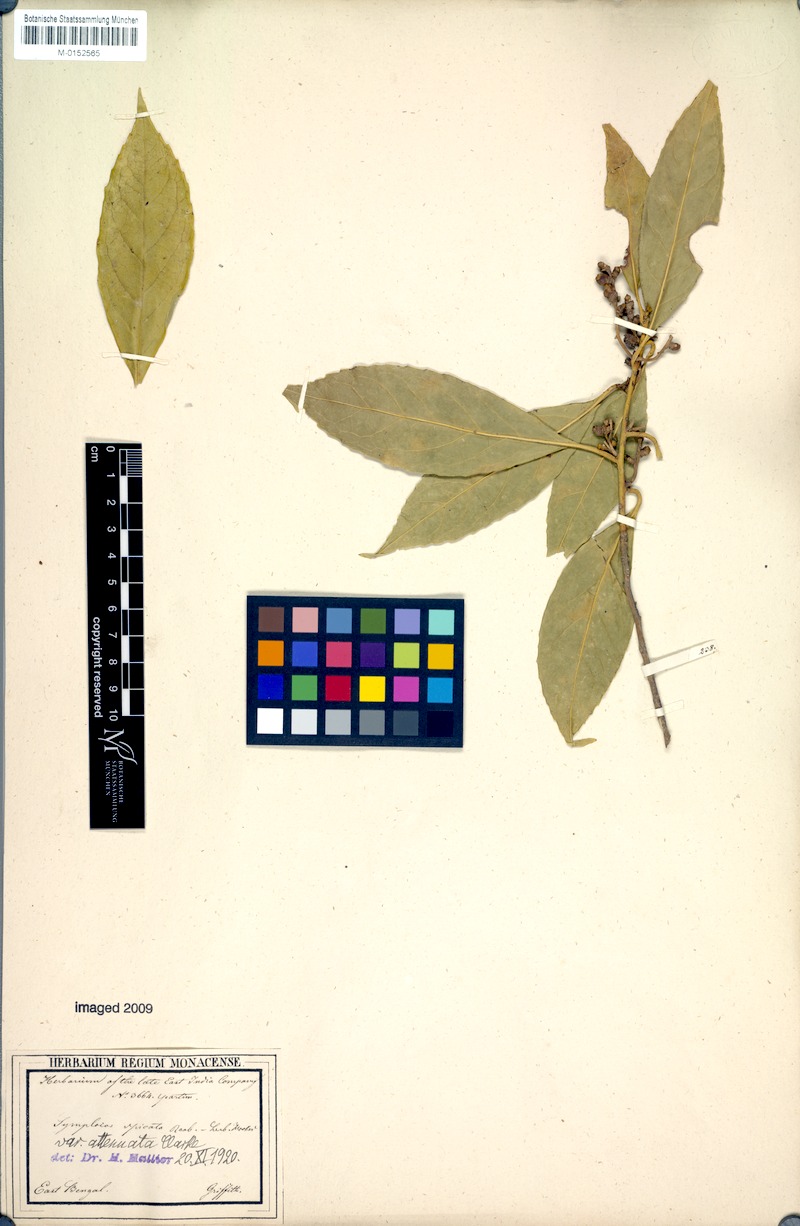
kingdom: Plantae
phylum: Tracheophyta
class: Magnoliopsida
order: Ericales
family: Symplocaceae
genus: Symplocos
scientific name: Symplocos acuminata
